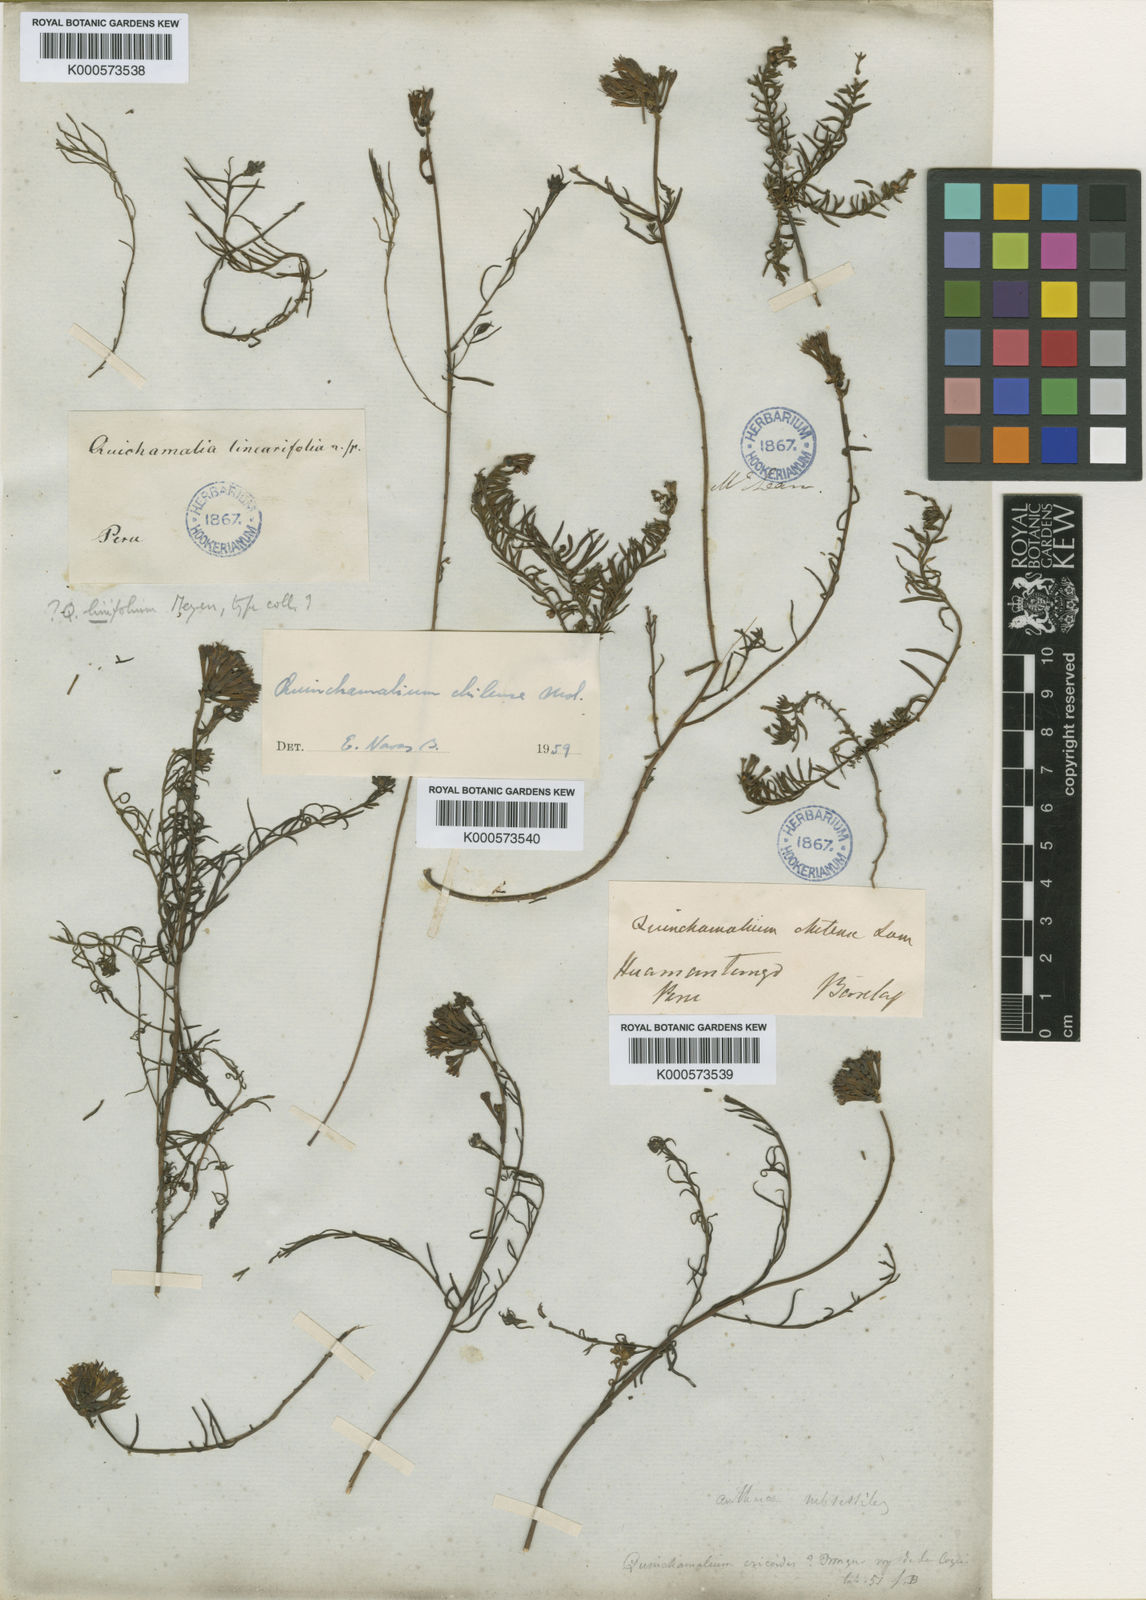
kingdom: Plantae
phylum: Tracheophyta
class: Magnoliopsida
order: Santalales
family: Schoepfiaceae
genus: Quinchamalium
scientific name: Quinchamalium
